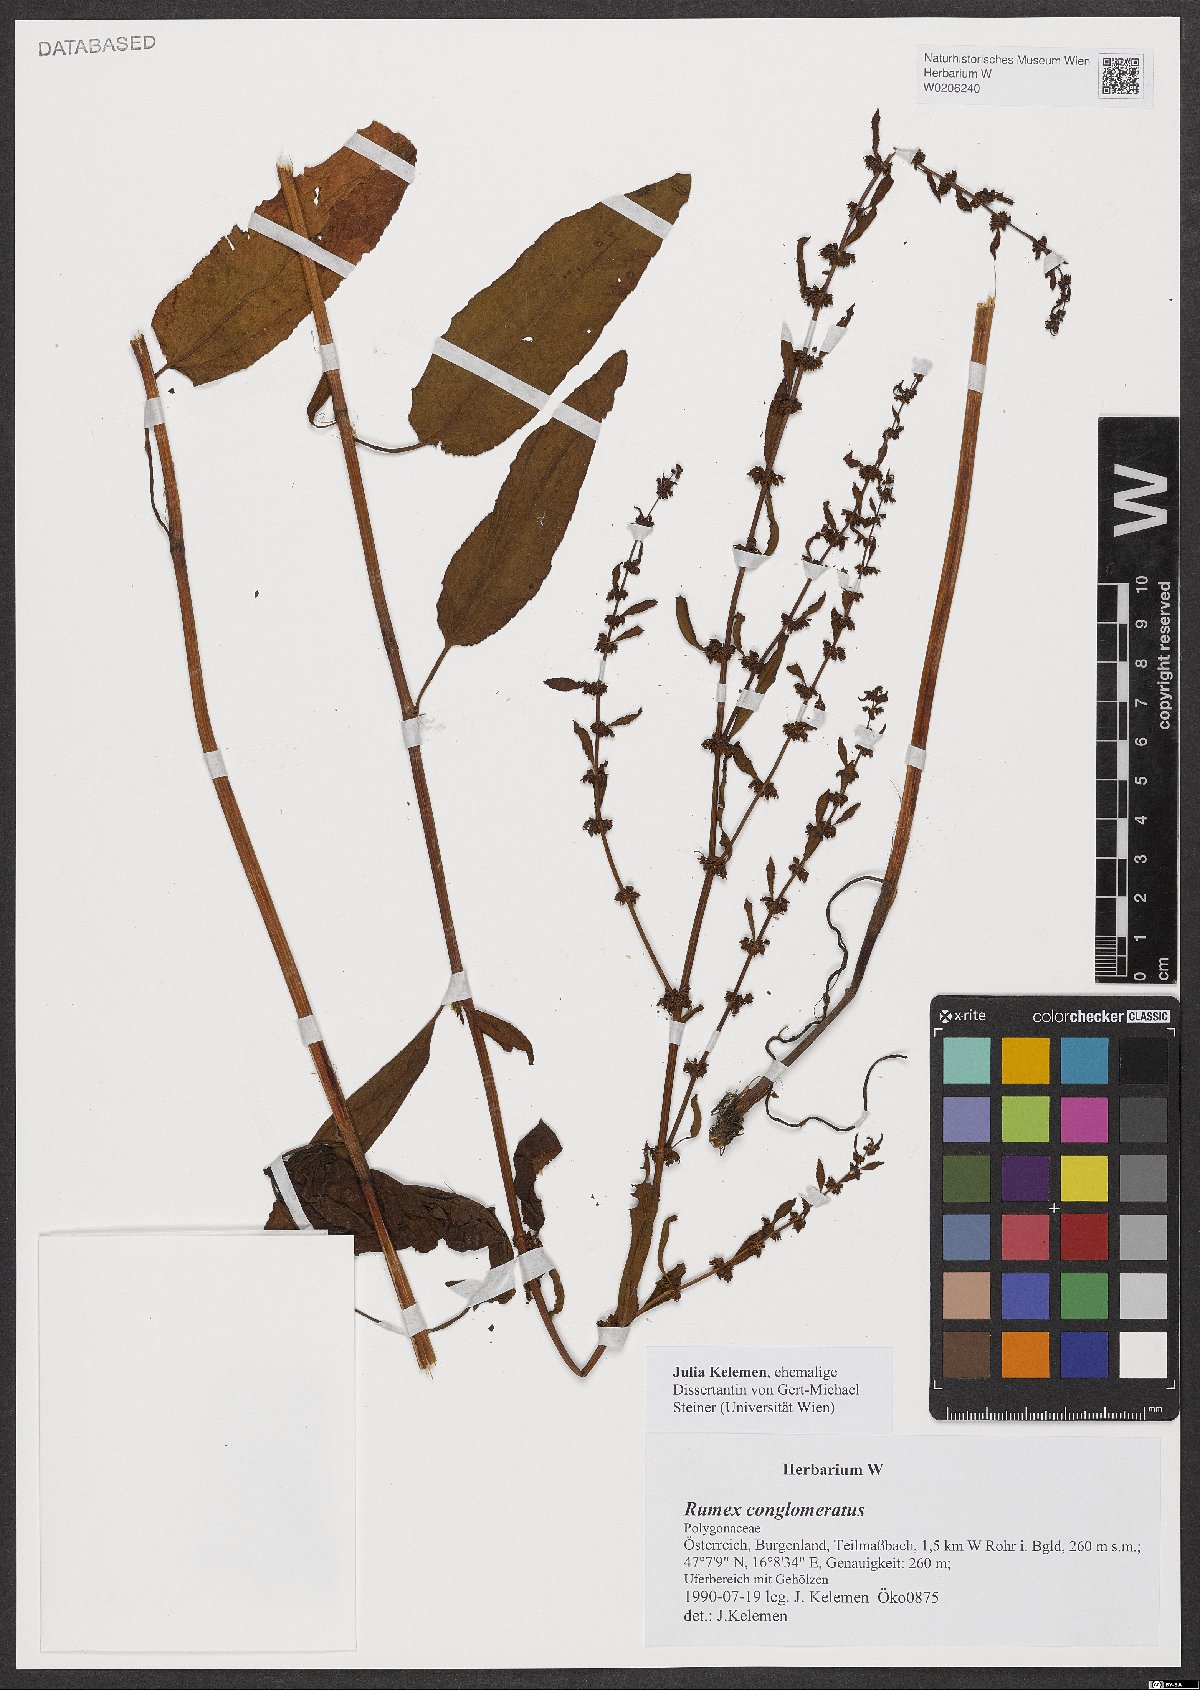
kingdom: Plantae
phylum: Tracheophyta
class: Magnoliopsida
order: Caryophyllales
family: Polygonaceae
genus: Rumex
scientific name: Rumex conglomeratus
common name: Clustered dock
